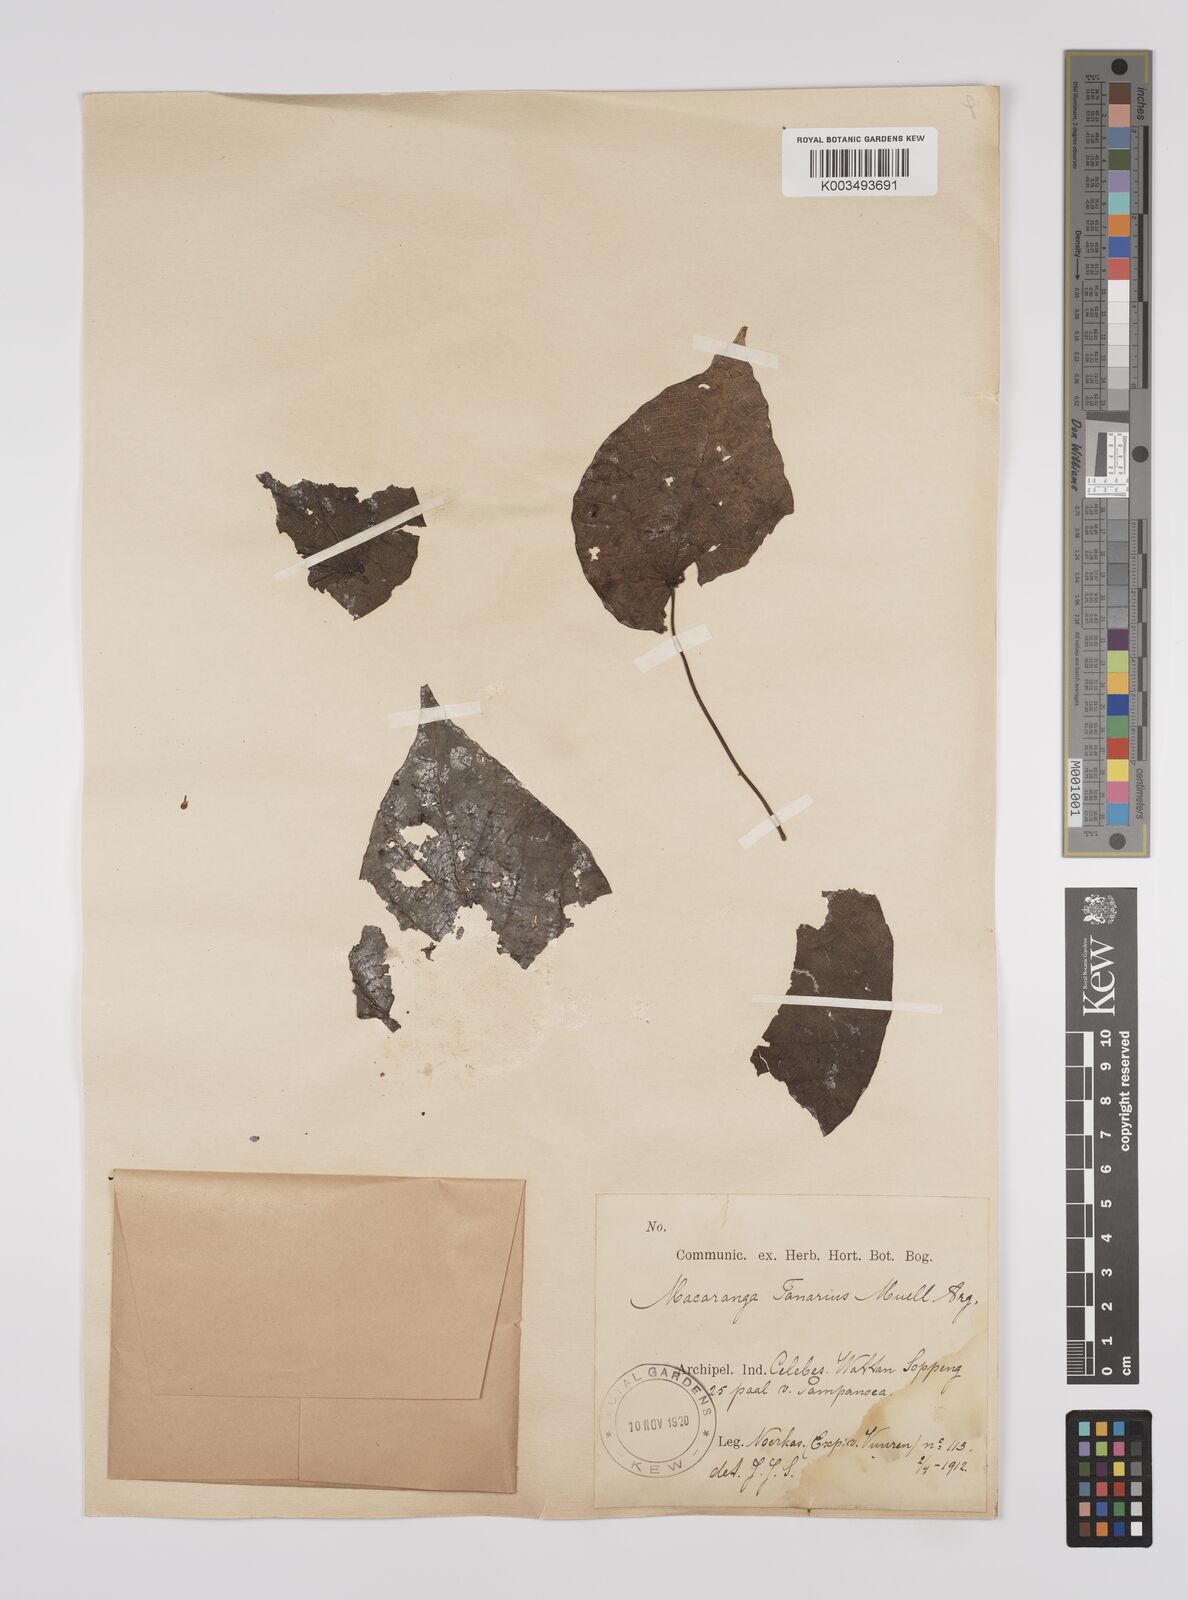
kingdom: Plantae
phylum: Tracheophyta
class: Magnoliopsida
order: Malpighiales
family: Euphorbiaceae
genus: Macaranga
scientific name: Macaranga tanarius
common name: Parasol leaf tree
